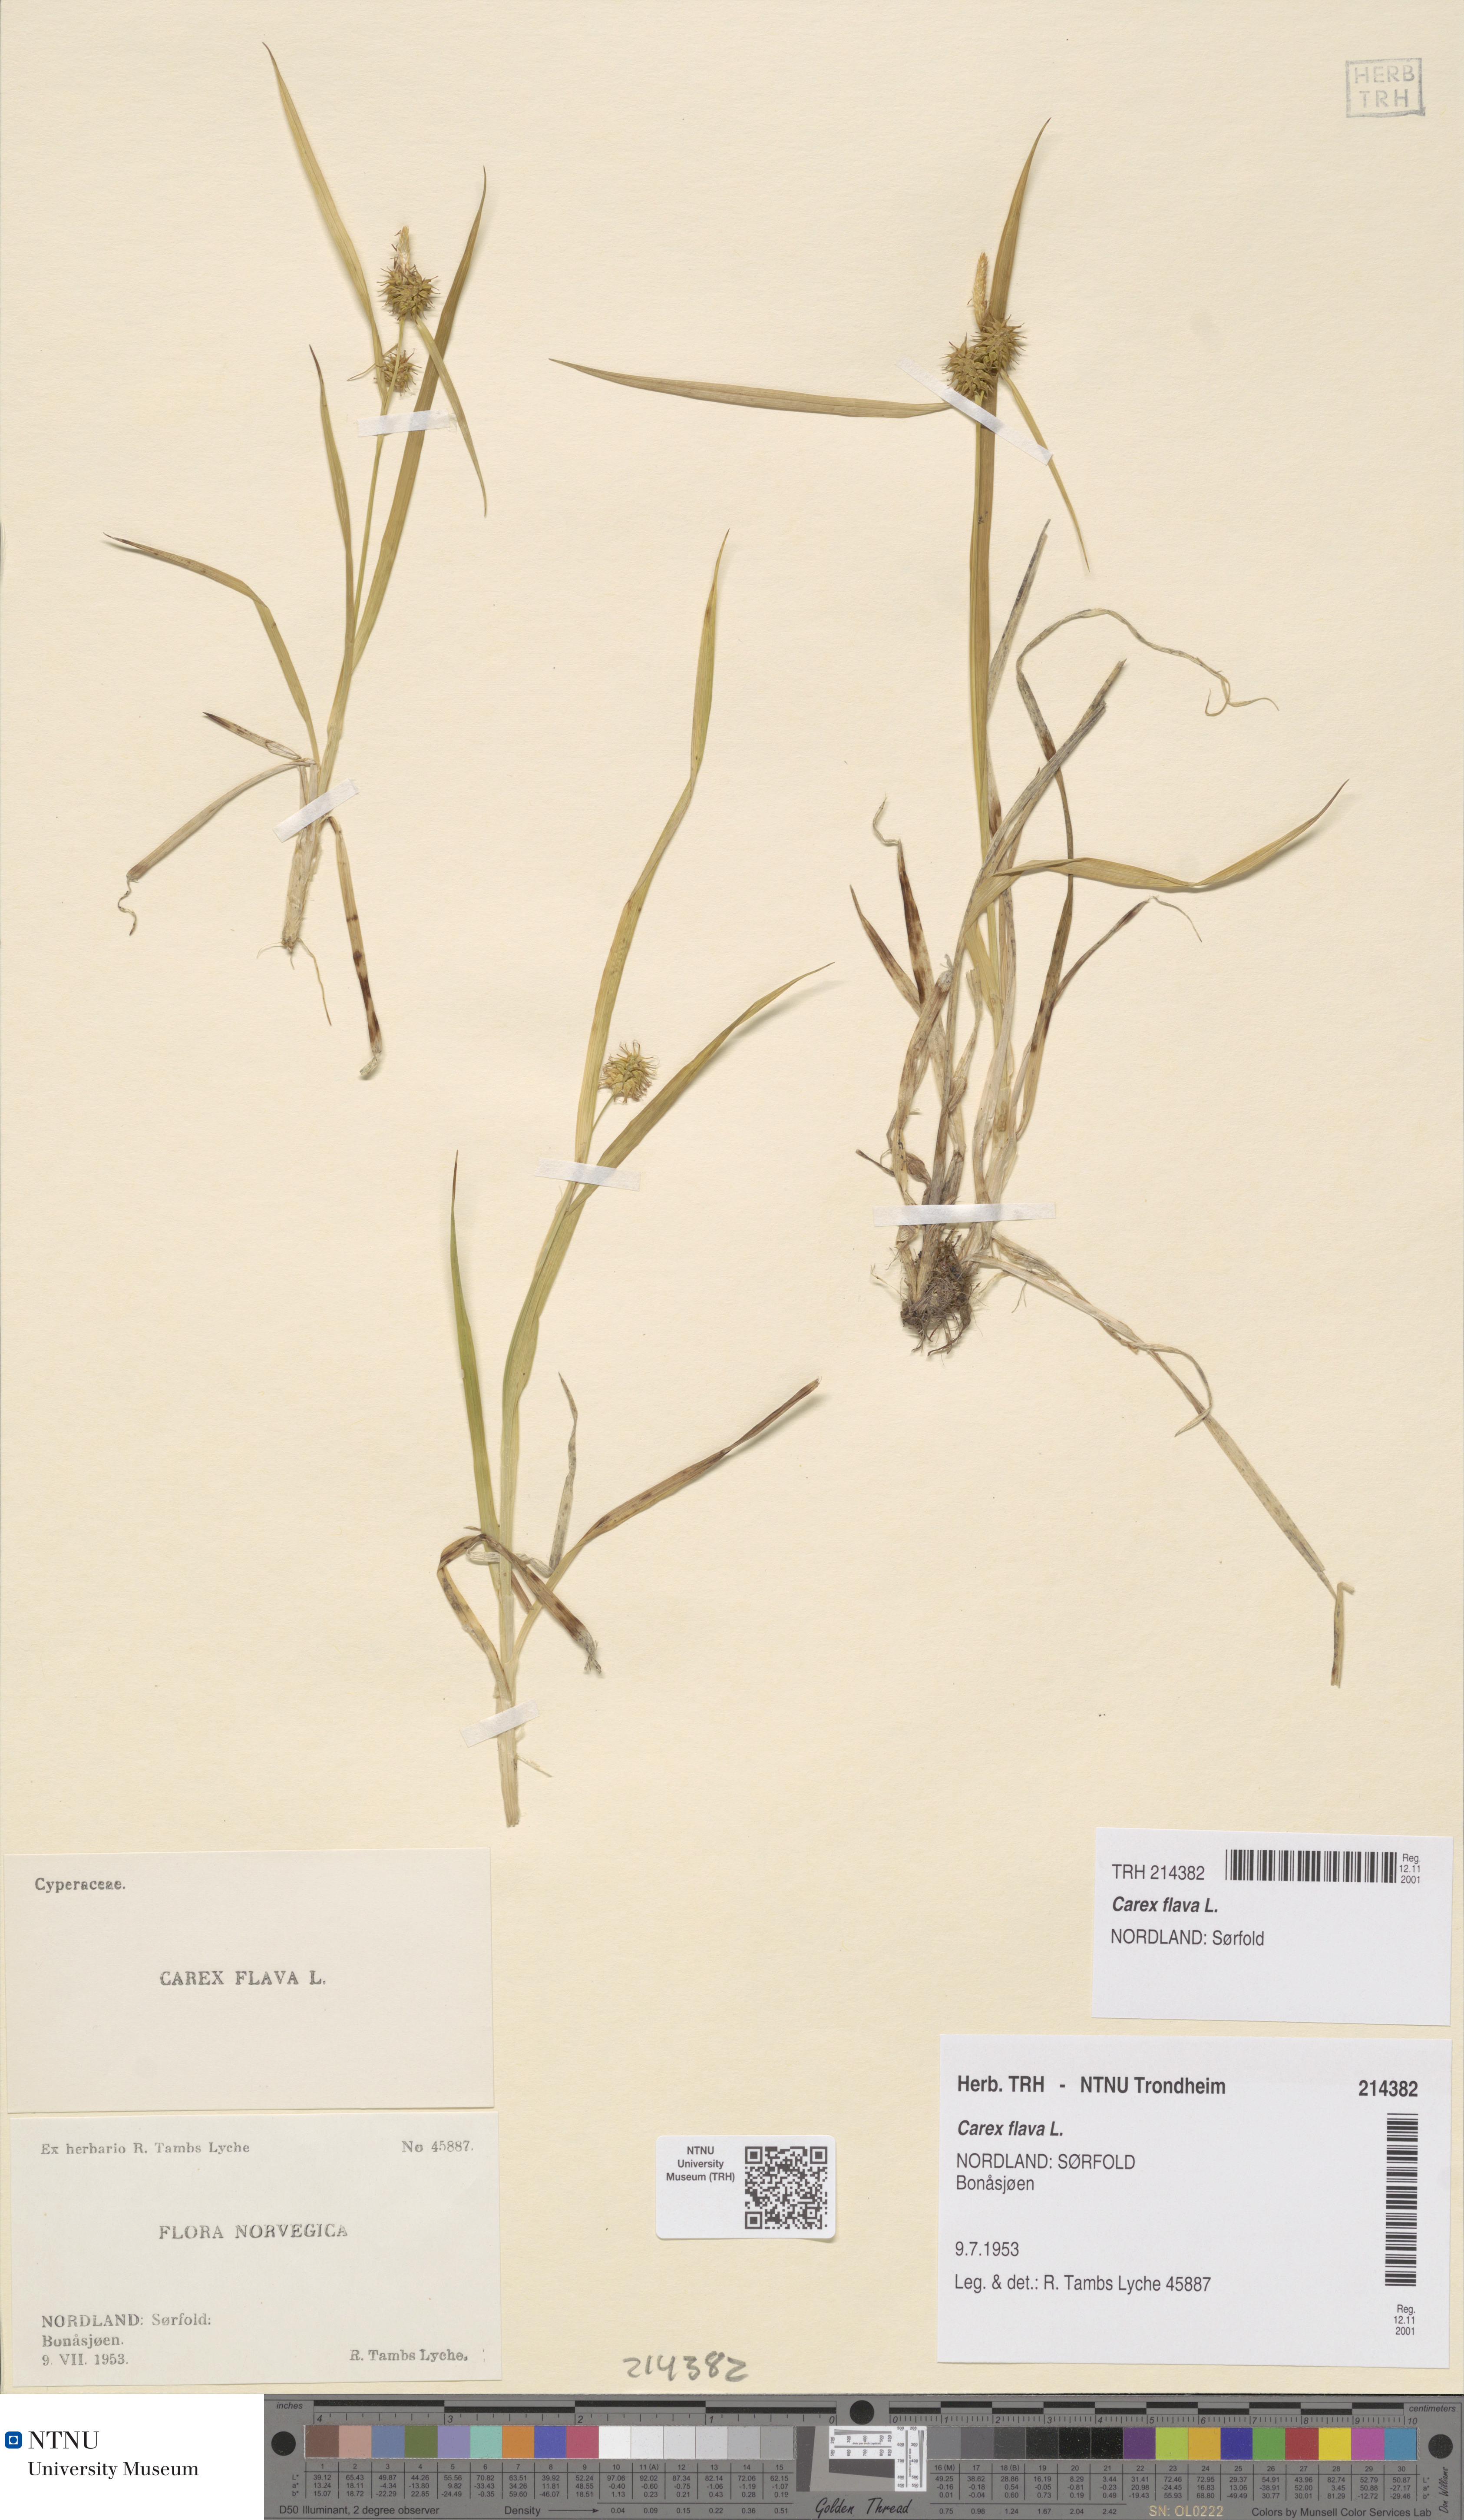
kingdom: Plantae
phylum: Tracheophyta
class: Liliopsida
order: Poales
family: Cyperaceae
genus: Carex
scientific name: Carex flava
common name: Large yellow-sedge
